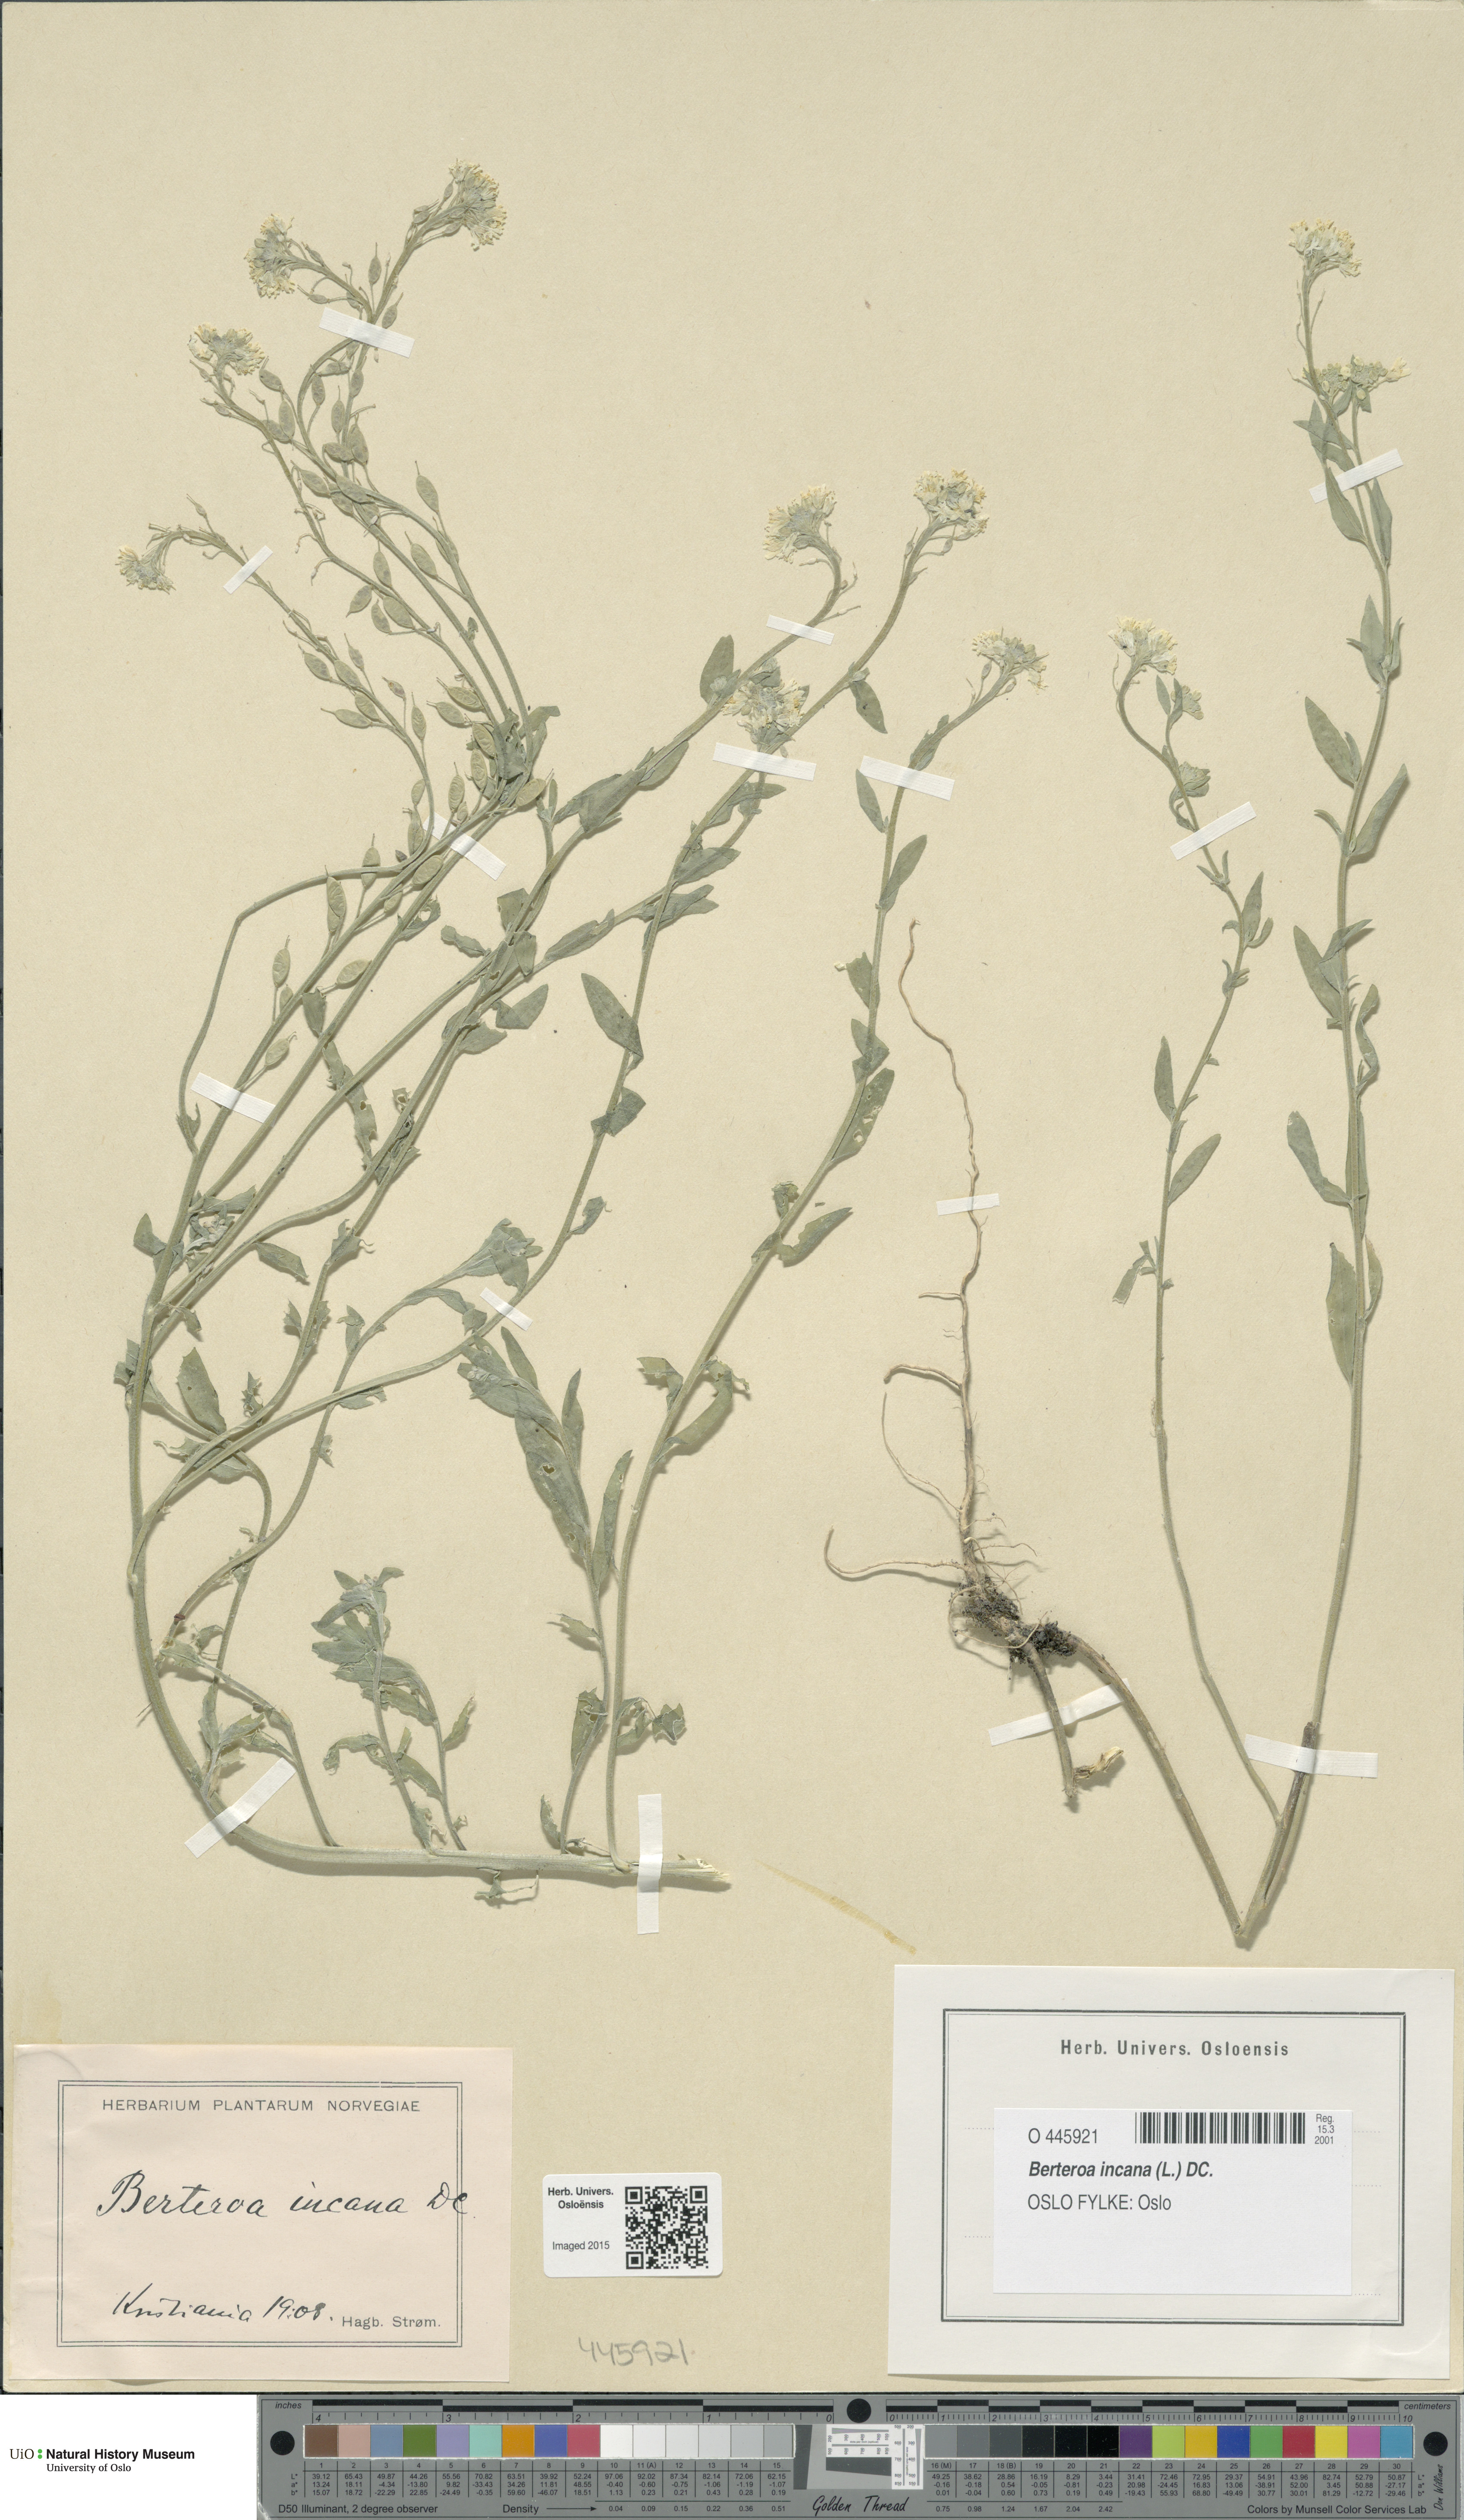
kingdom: Plantae
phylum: Tracheophyta
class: Magnoliopsida
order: Brassicales
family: Brassicaceae
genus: Berteroa
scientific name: Berteroa incana
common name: Hoary alison
